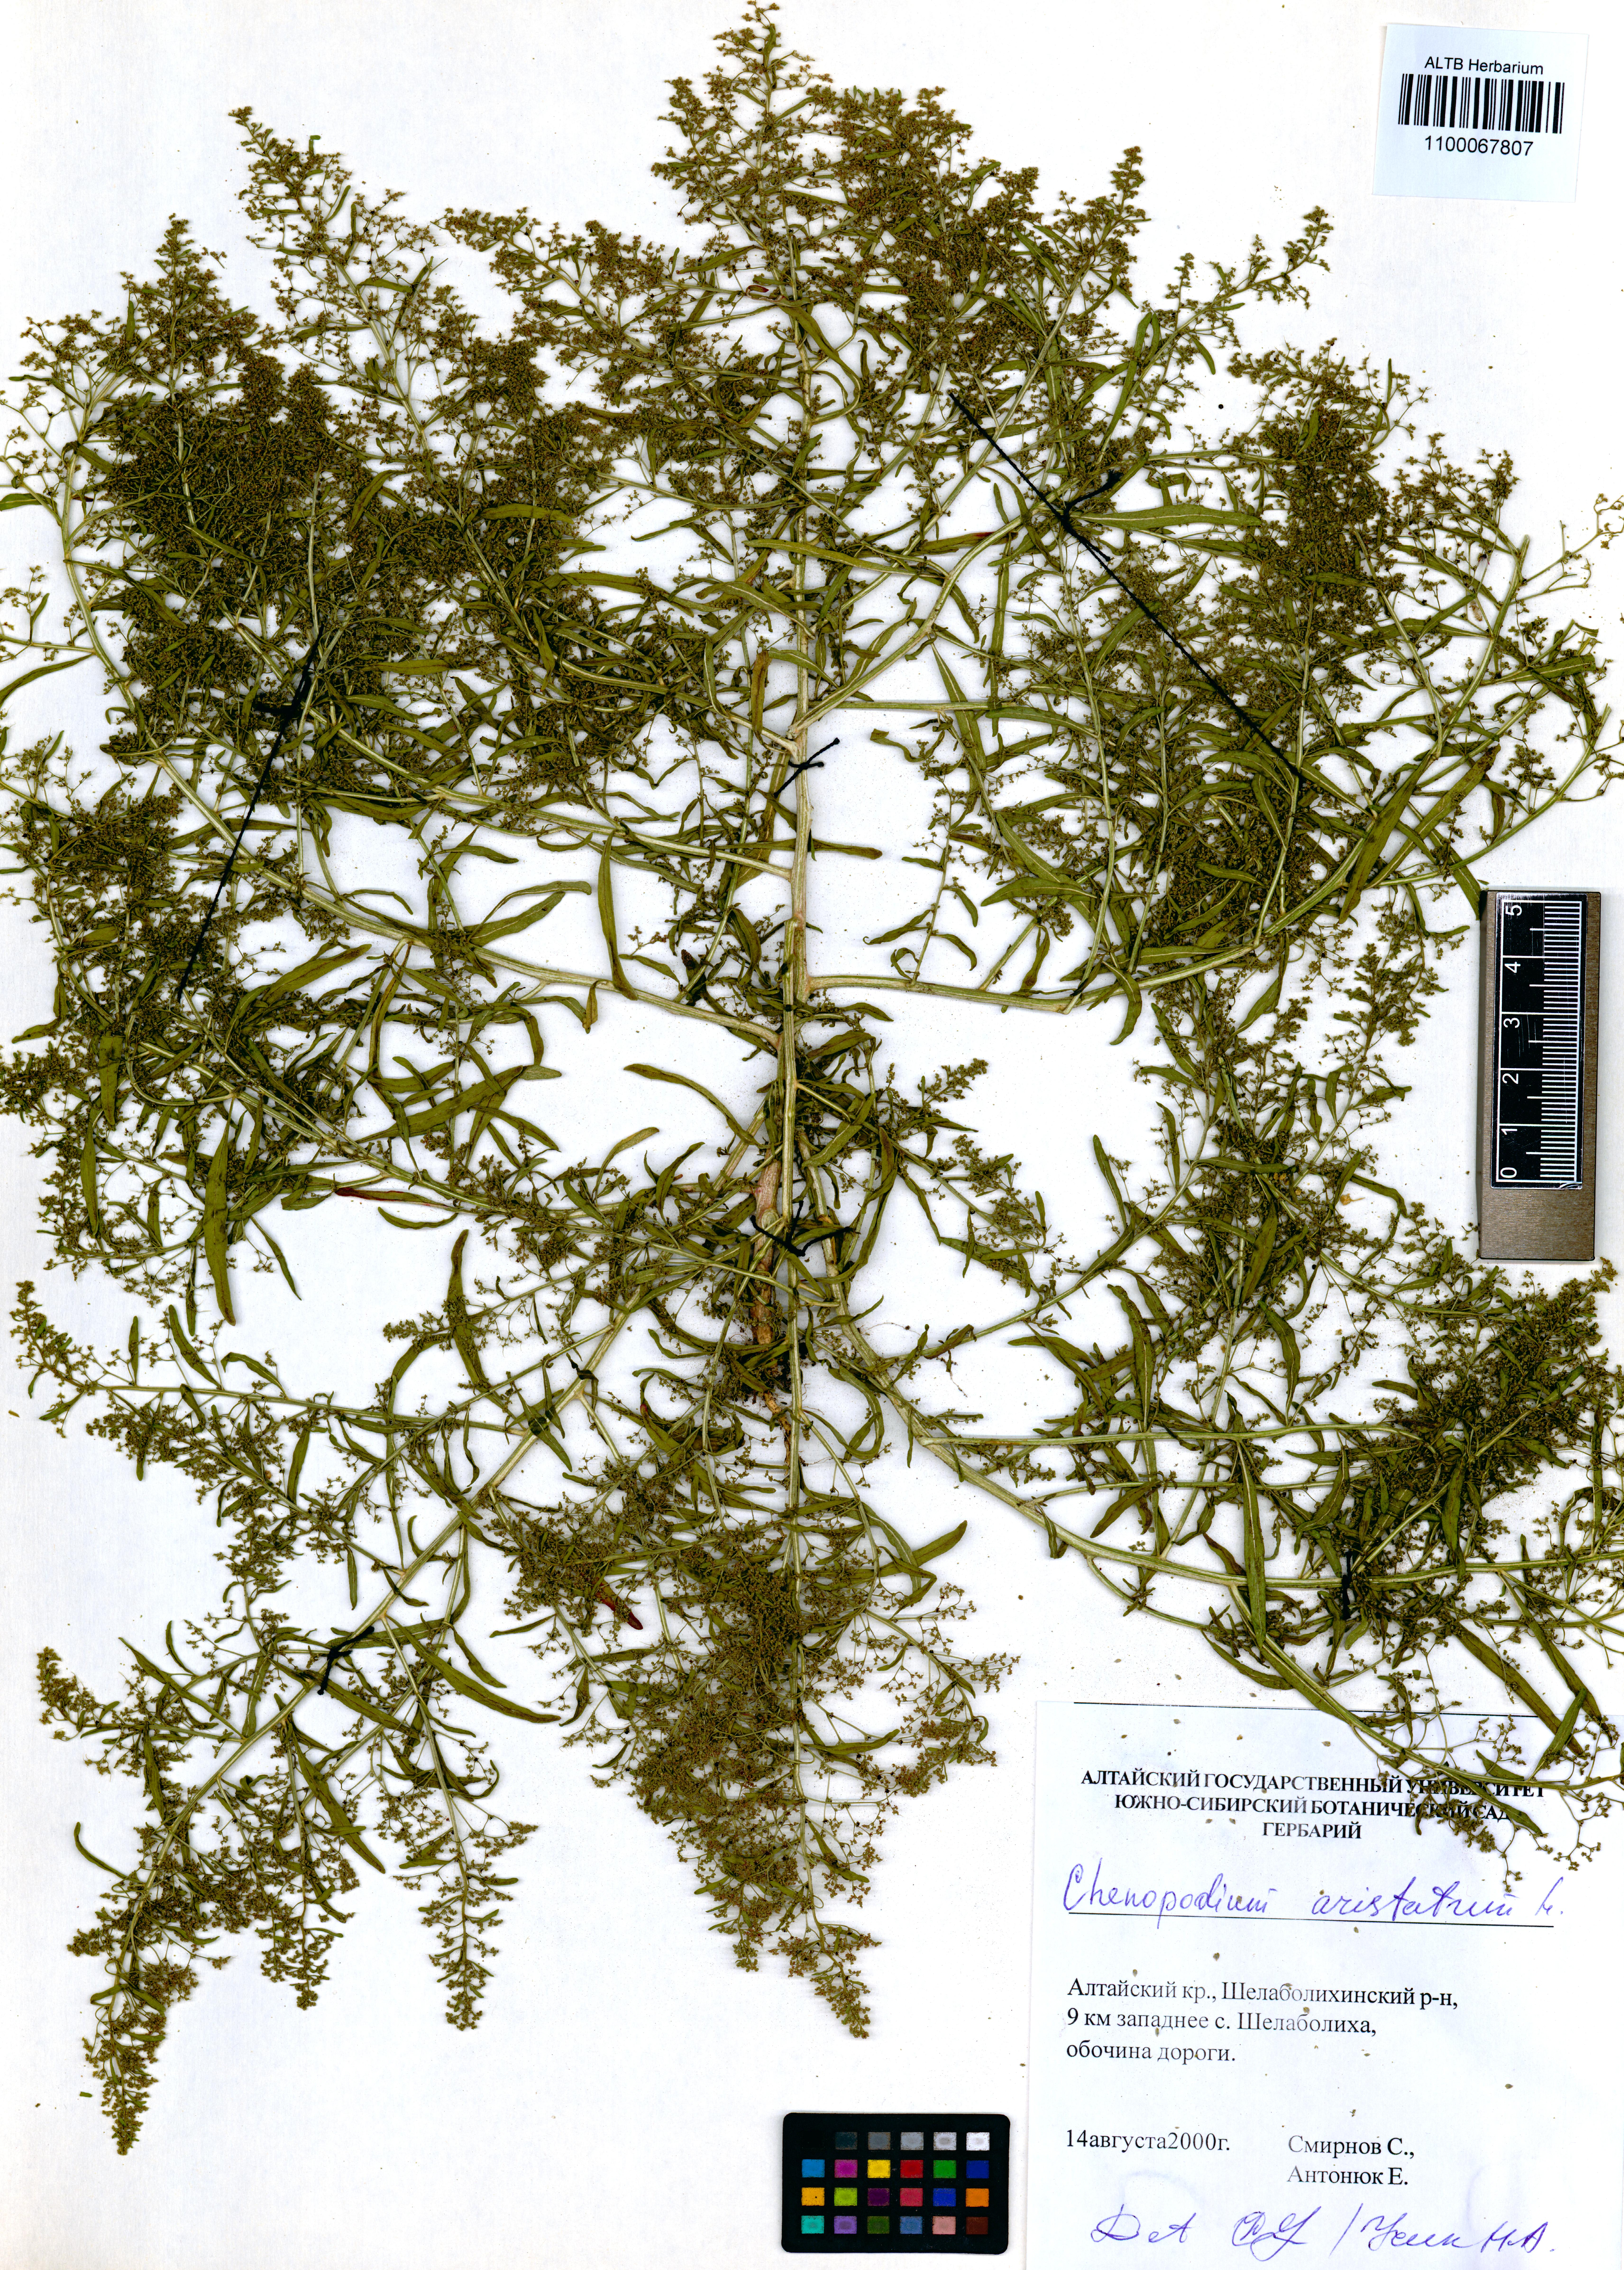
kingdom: Plantae
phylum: Tracheophyta
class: Magnoliopsida
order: Caryophyllales
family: Amaranthaceae
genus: Teloxys
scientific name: Teloxys aristata
